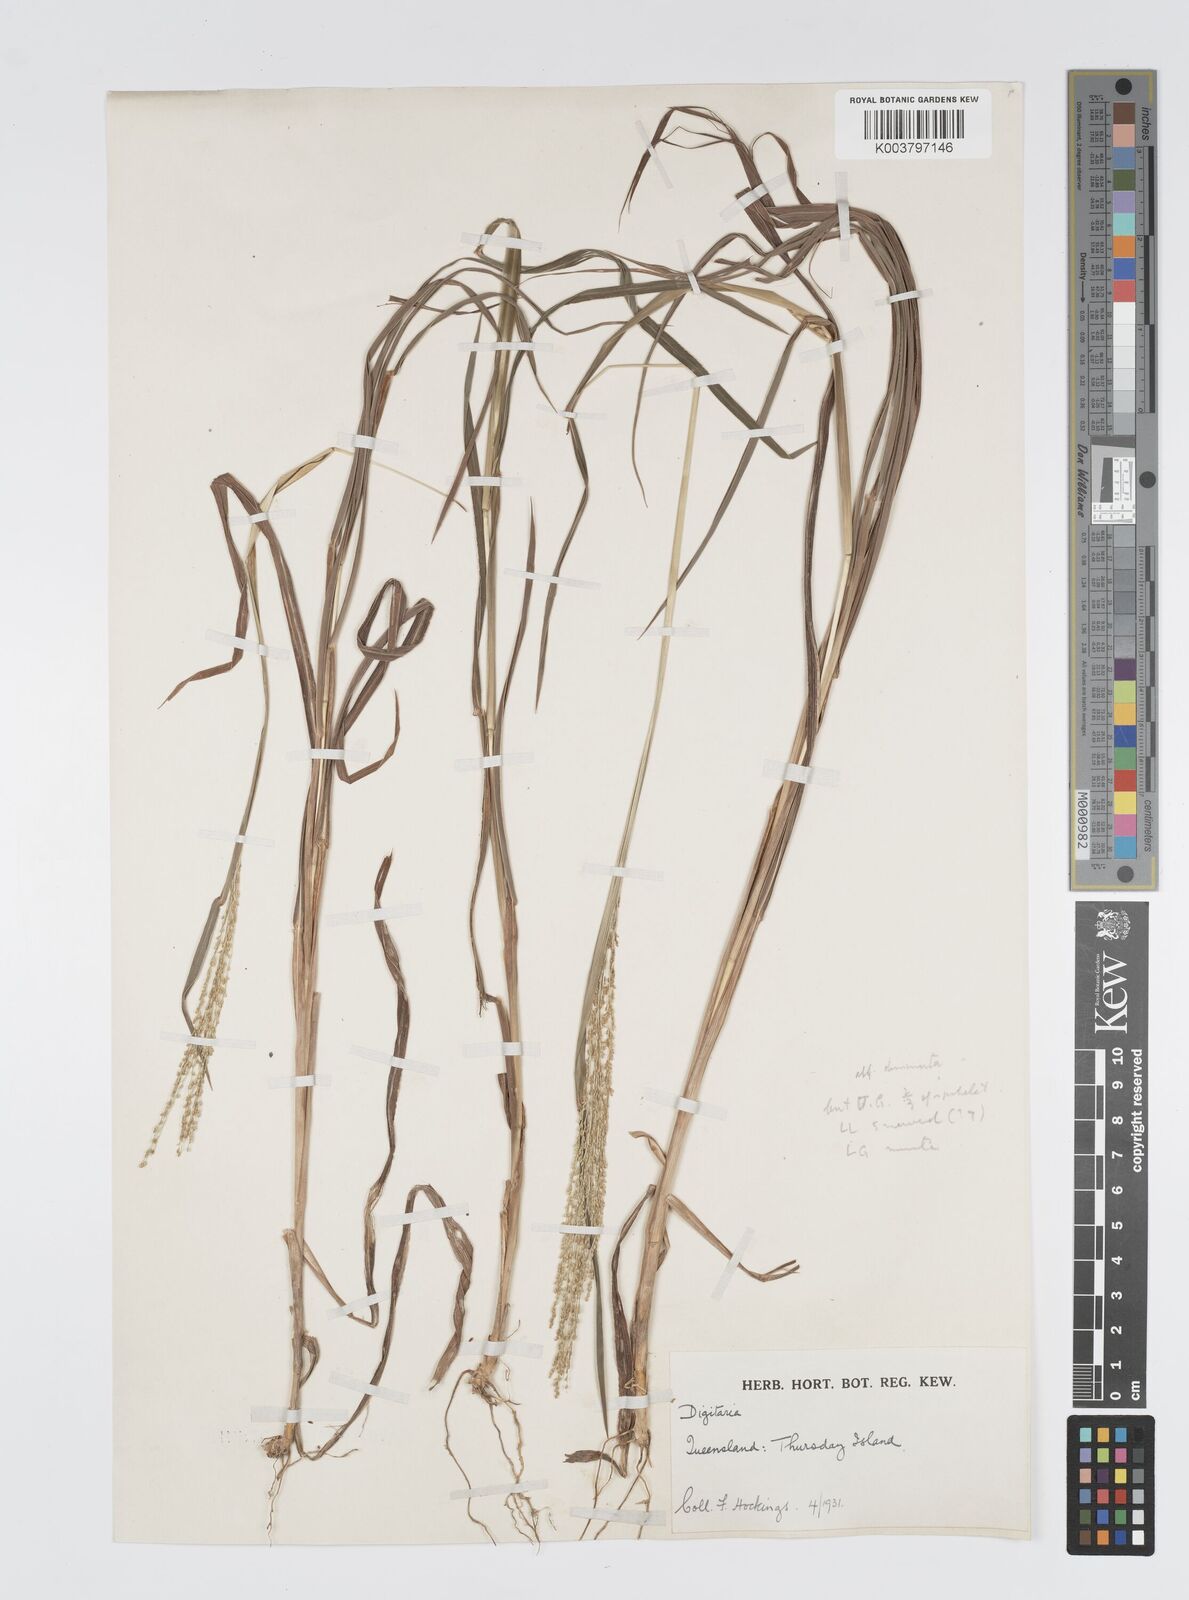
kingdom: Plantae
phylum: Tracheophyta
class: Liliopsida
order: Poales
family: Poaceae
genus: Digitaria
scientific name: Digitaria spec
